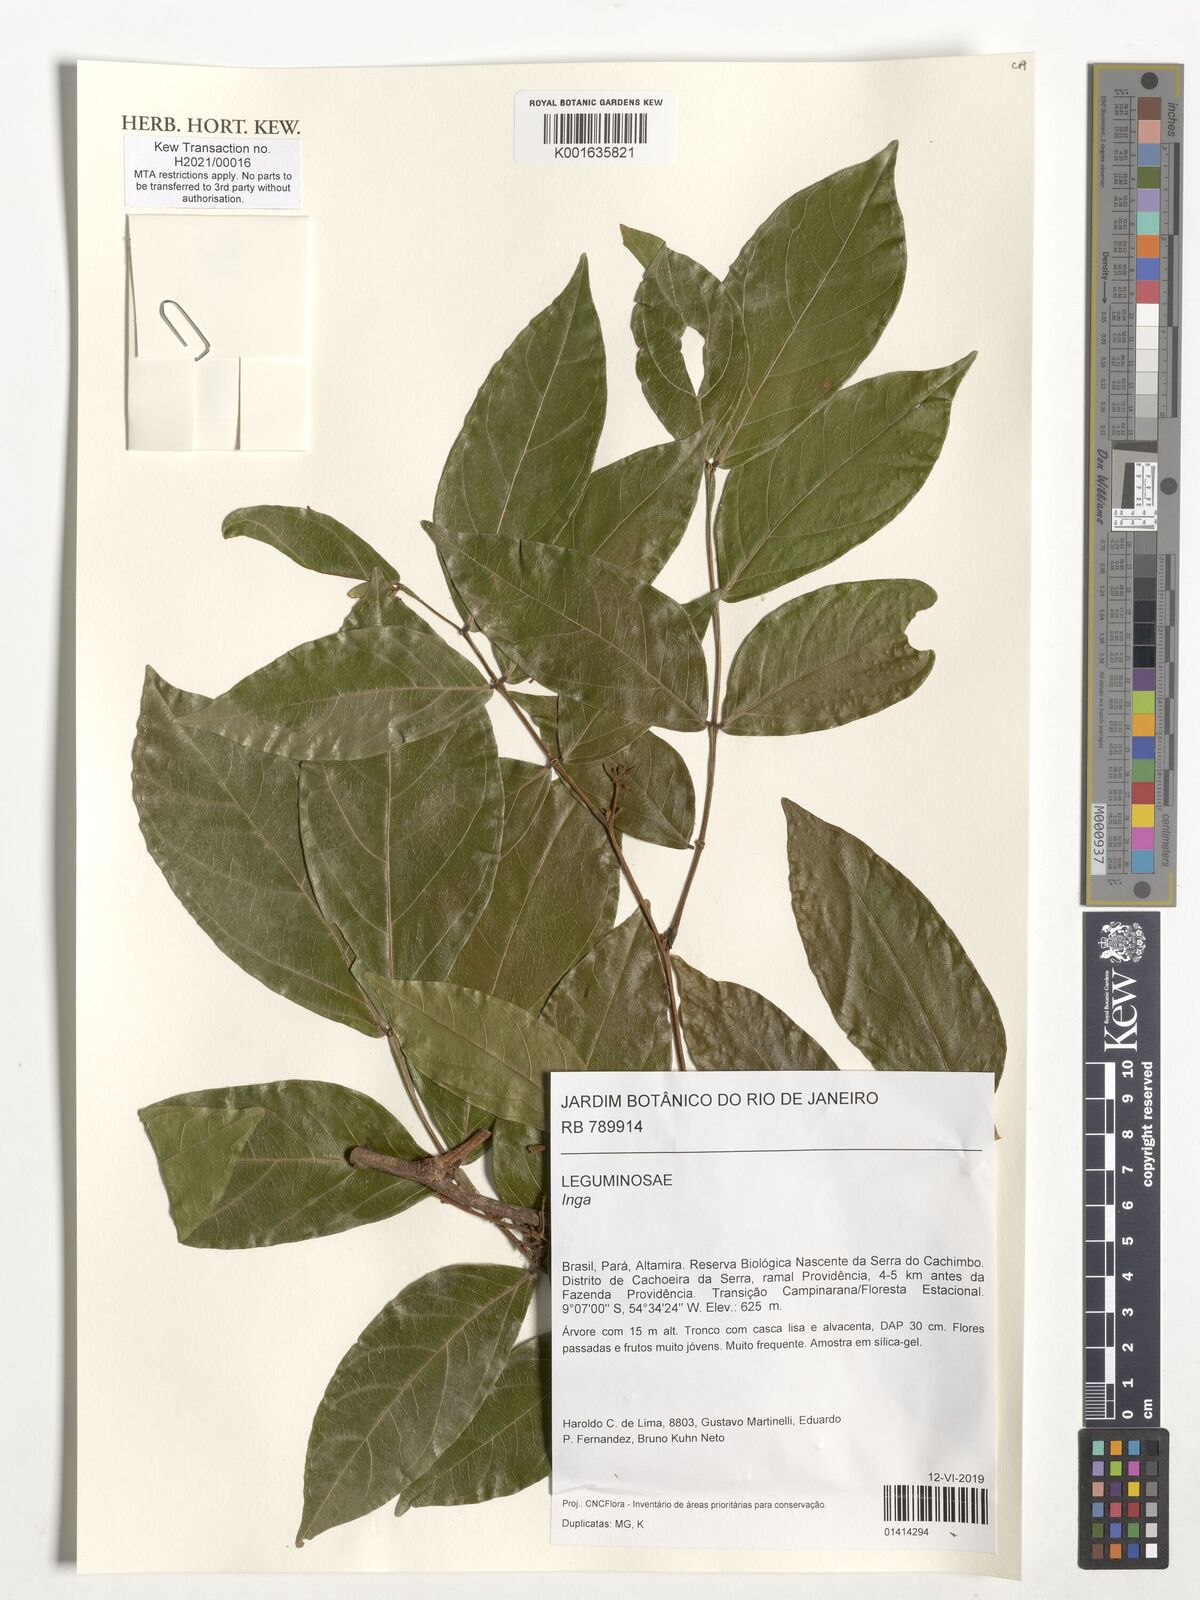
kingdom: Plantae
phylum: Tracheophyta
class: Magnoliopsida
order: Fabales
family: Fabaceae
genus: Inga
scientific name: Inga
